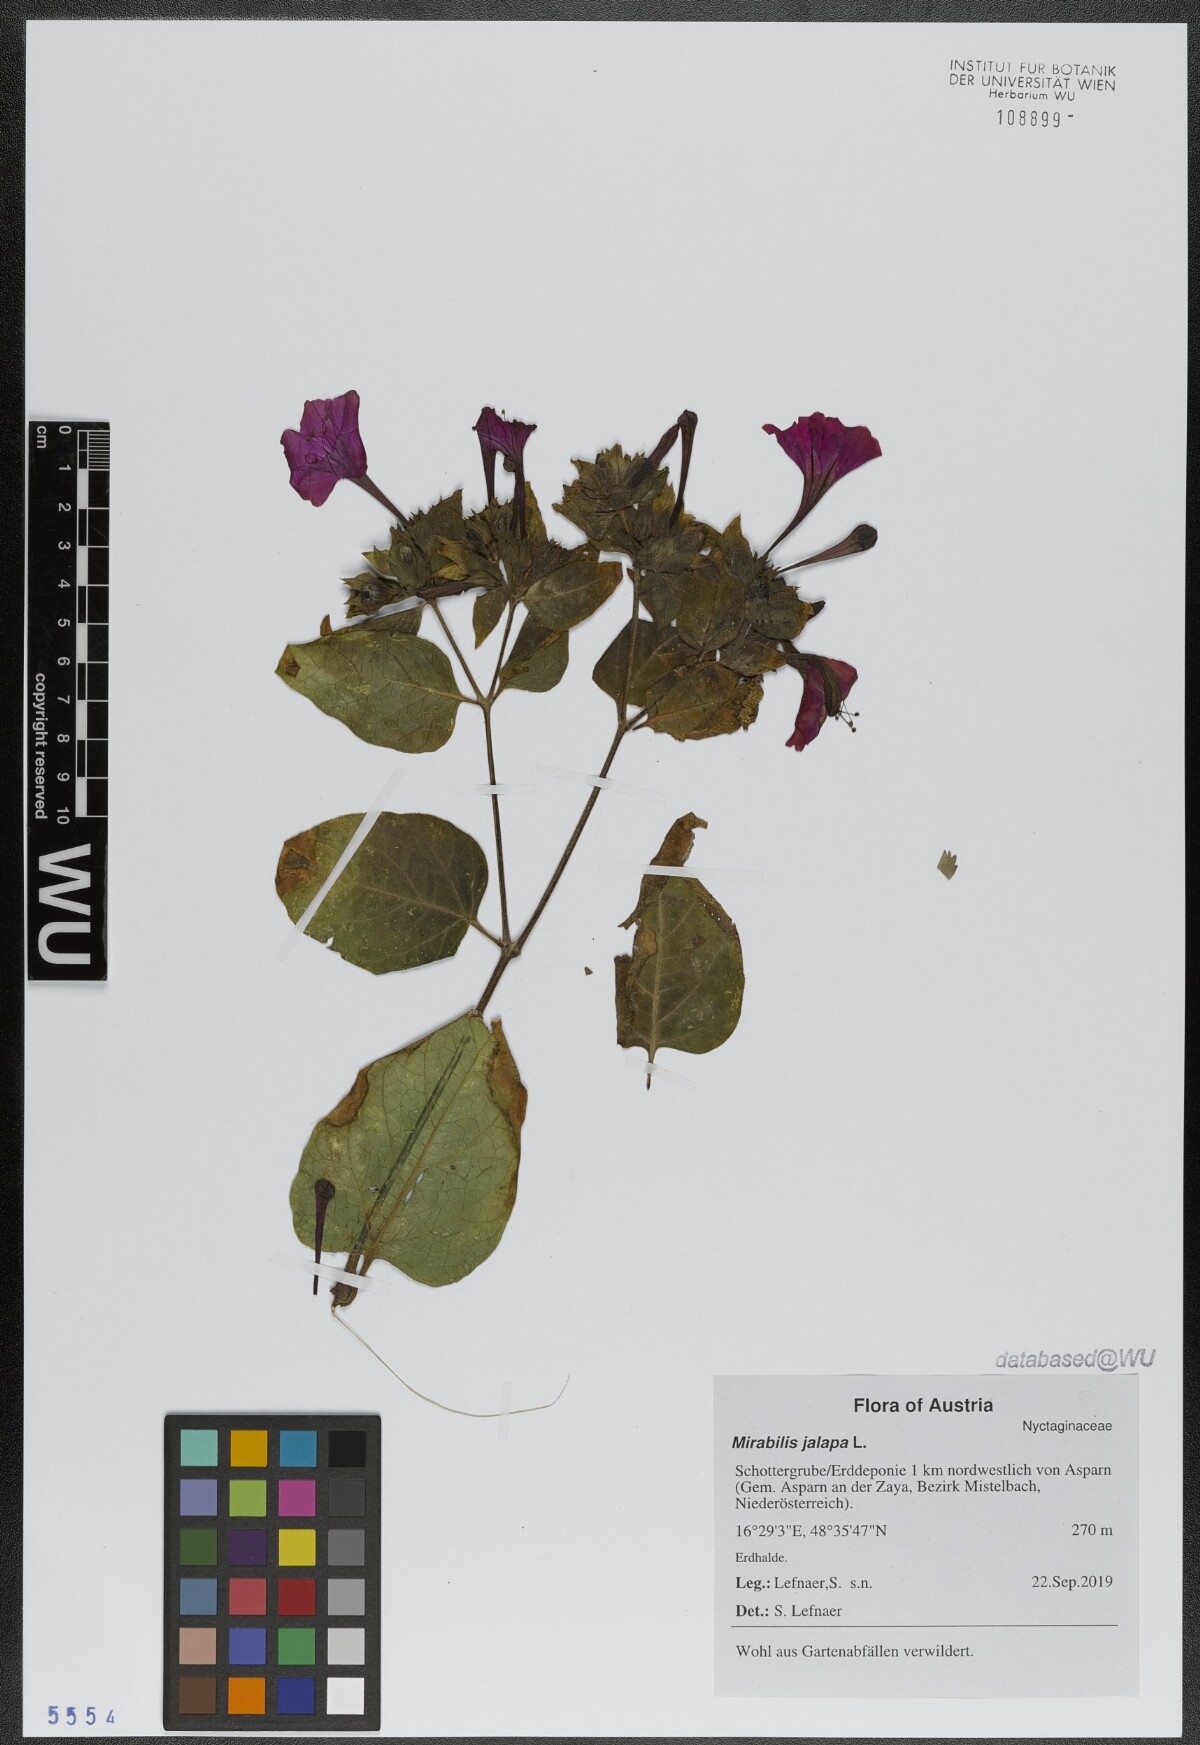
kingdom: Plantae
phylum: Tracheophyta
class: Magnoliopsida
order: Caryophyllales
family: Nyctaginaceae
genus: Mirabilis
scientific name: Mirabilis jalapa
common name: Marvel-of-peru
